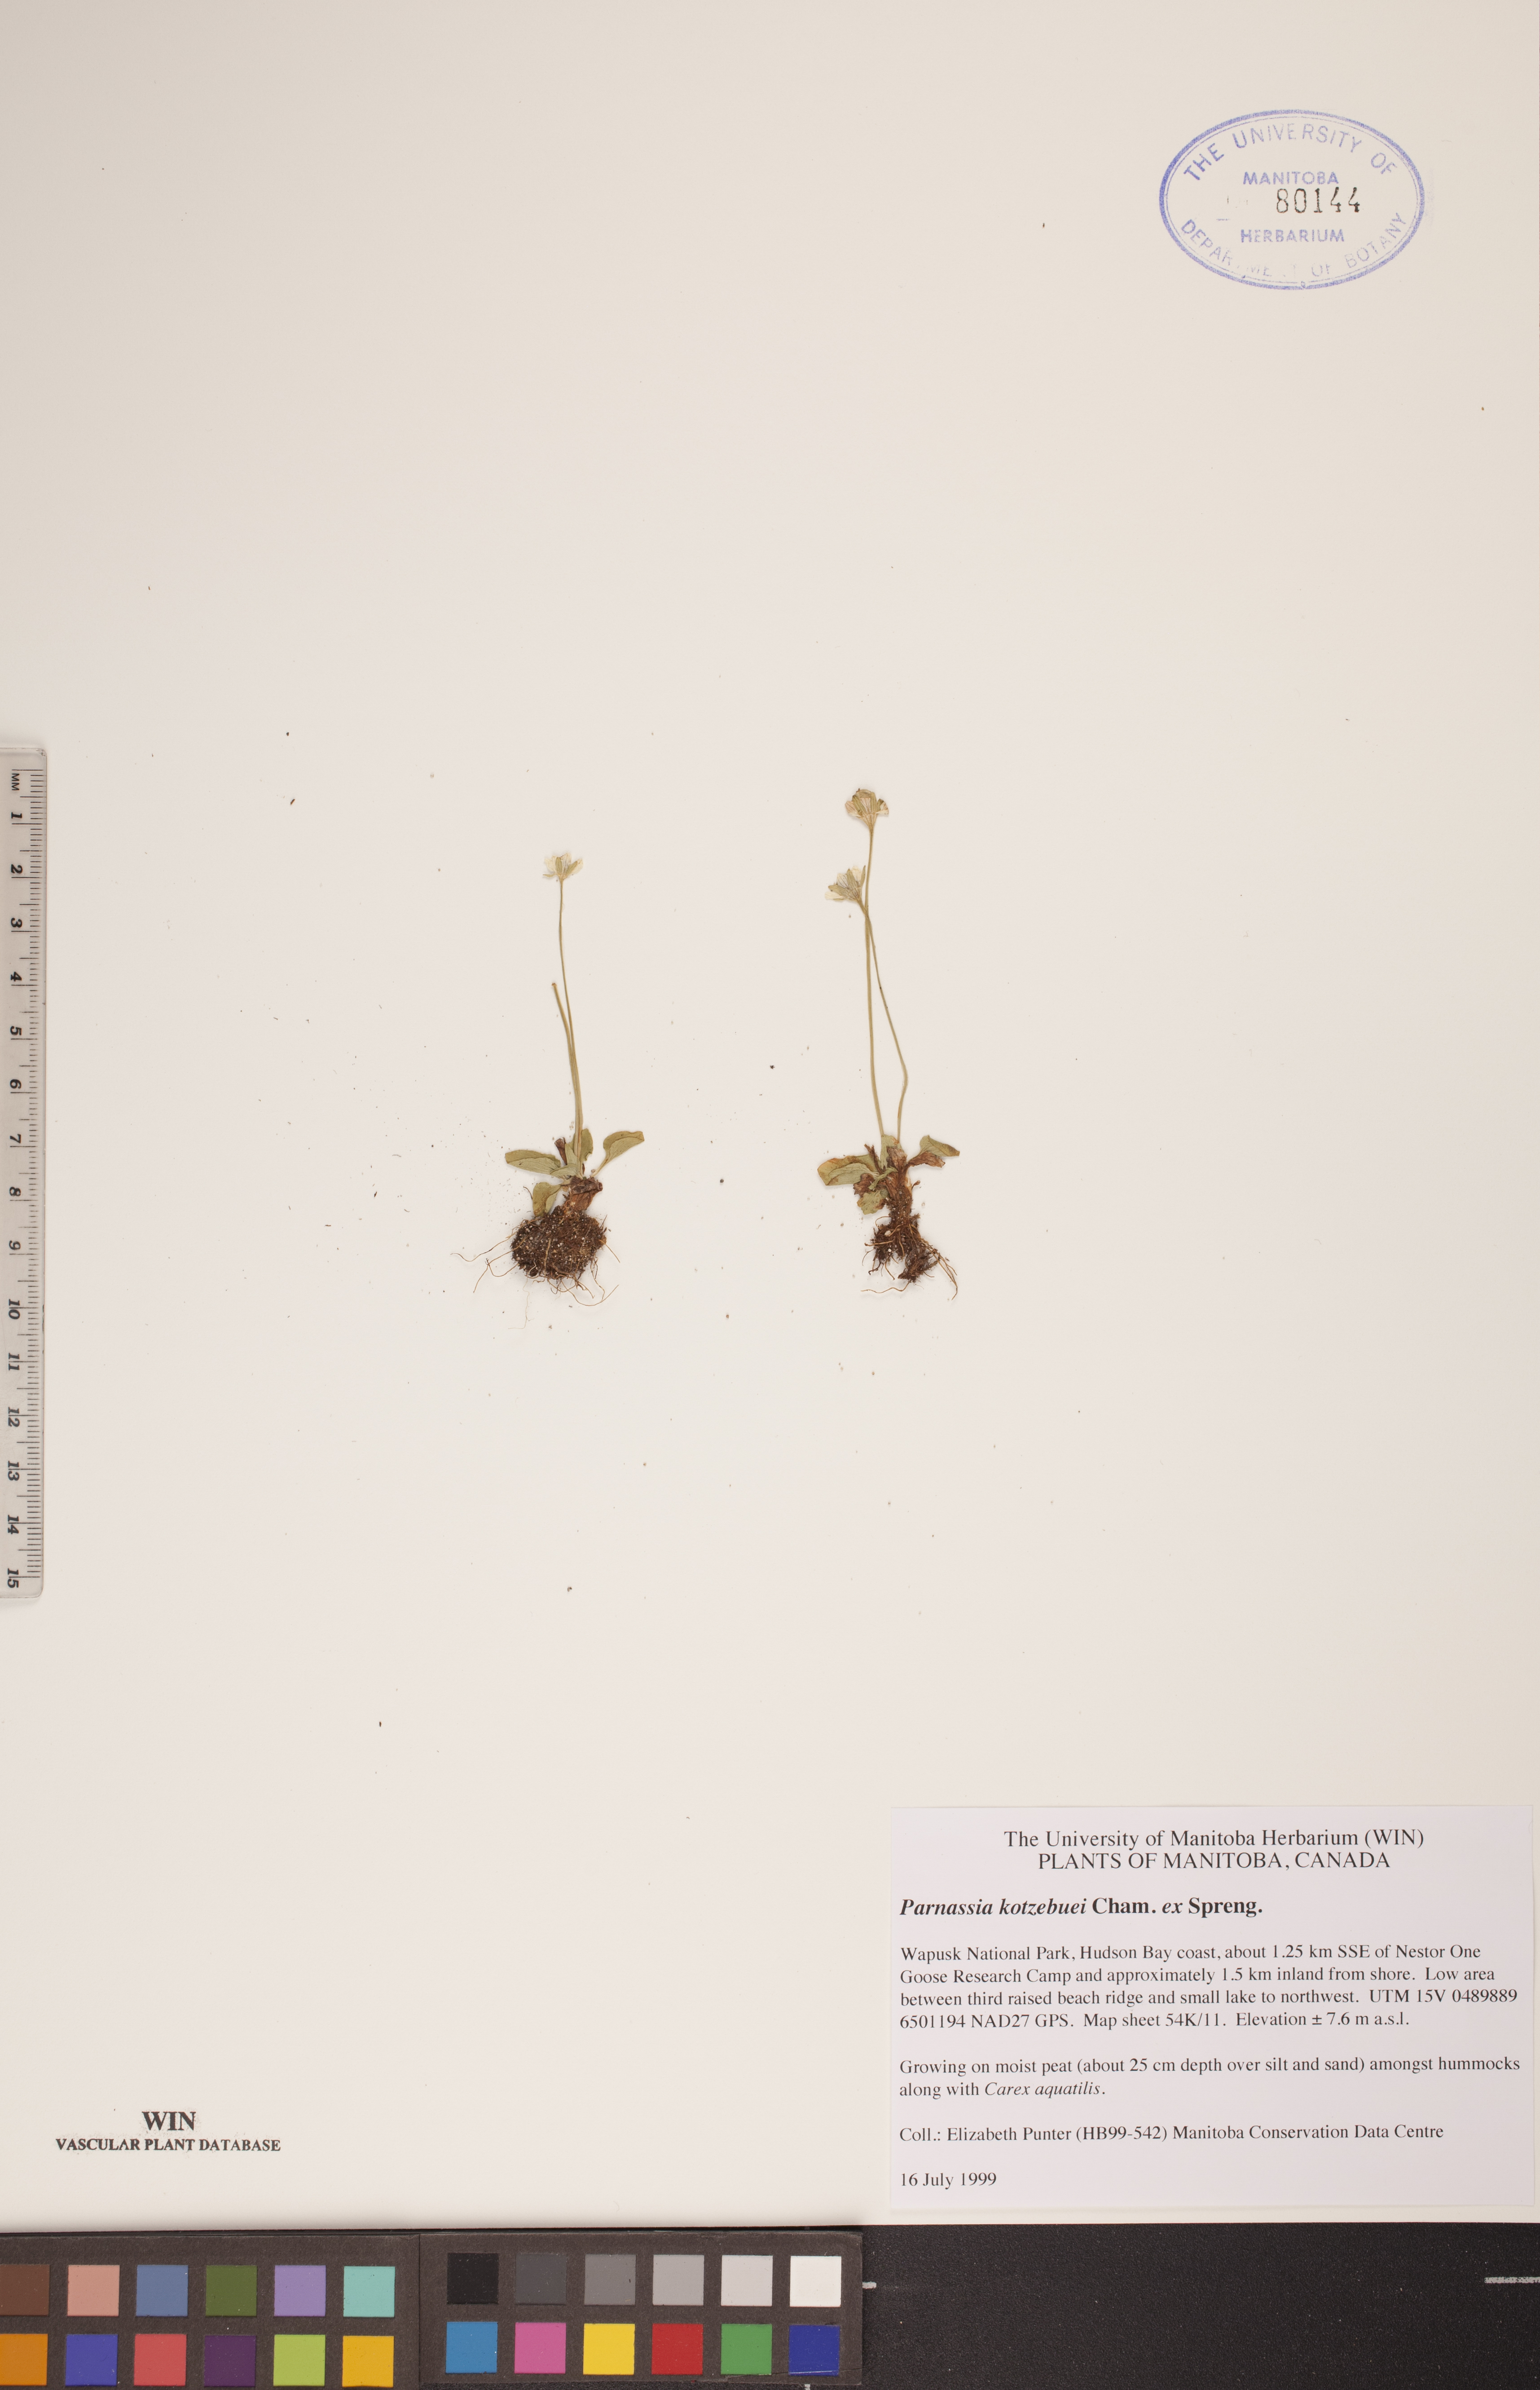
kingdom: Plantae
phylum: Tracheophyta
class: Magnoliopsida
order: Celastrales
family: Parnassiaceae
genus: Parnassia
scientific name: Parnassia kotzebuei
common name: Kotzebue's grass-of-parnassus
